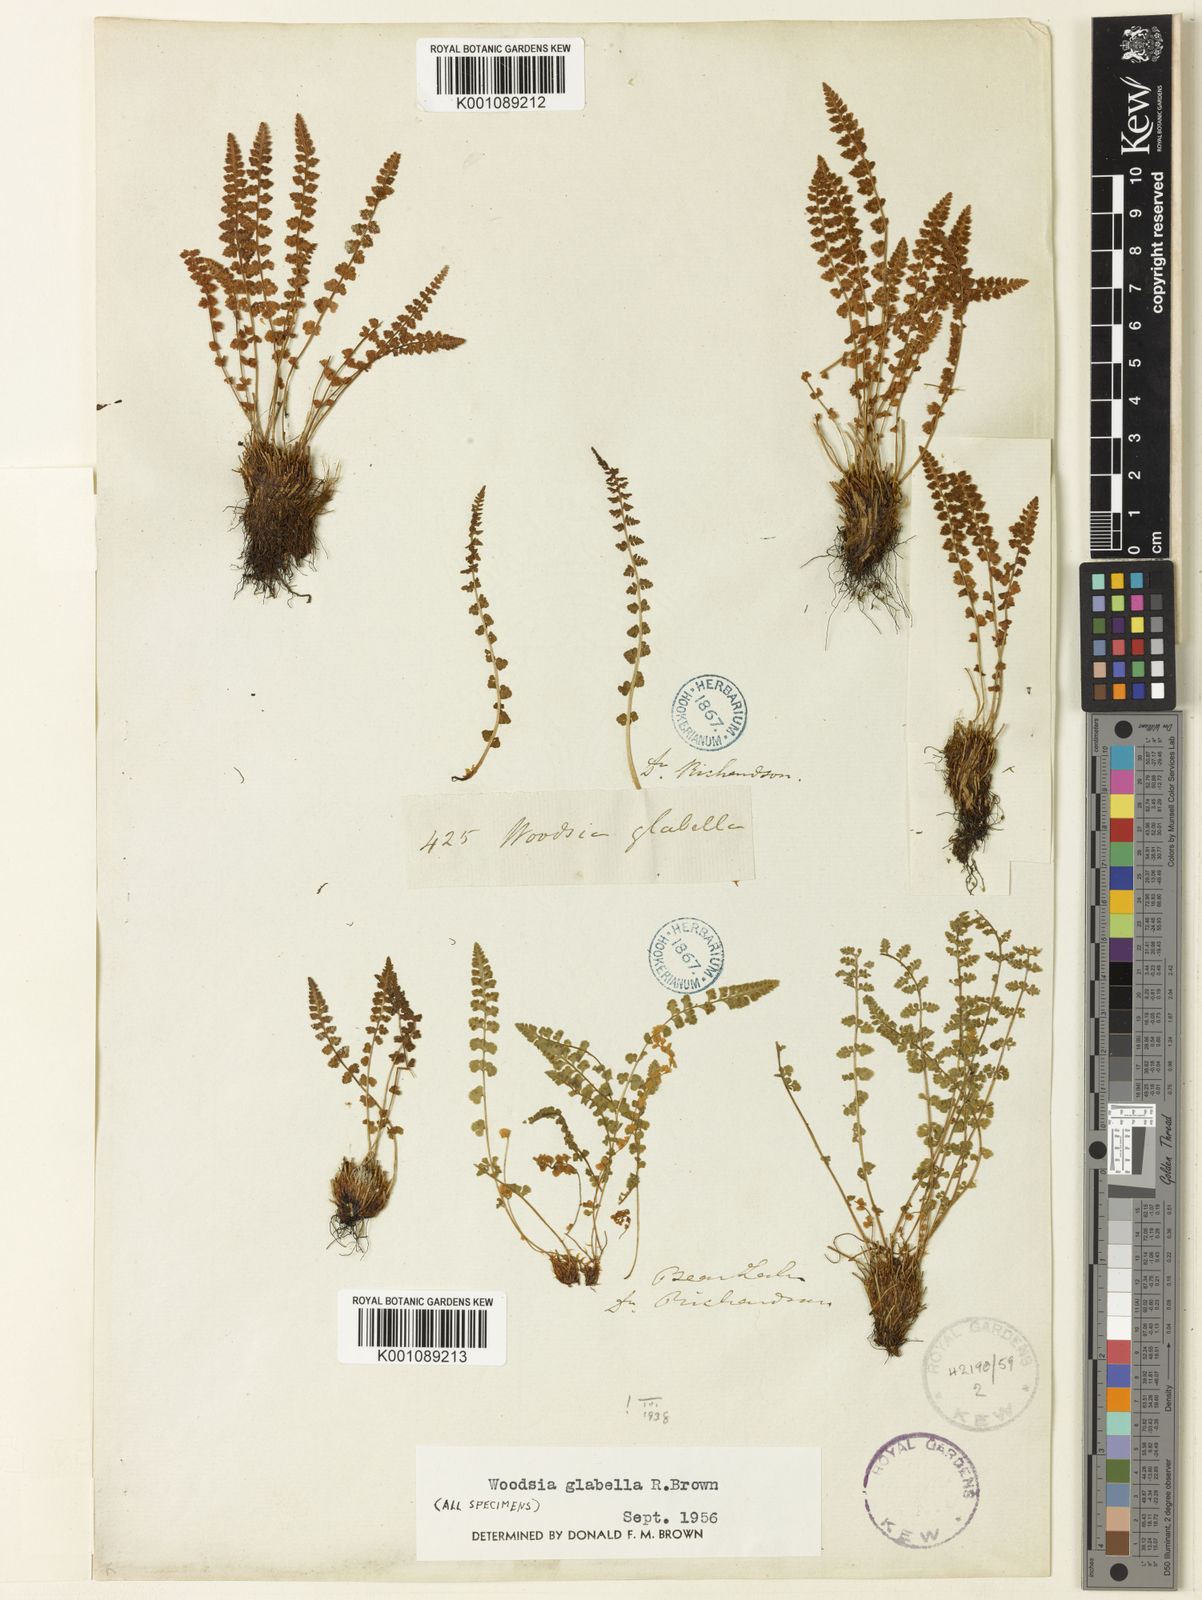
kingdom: Plantae
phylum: Tracheophyta
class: Polypodiopsida
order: Polypodiales
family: Woodsiaceae
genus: Woodsia
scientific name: Woodsia
